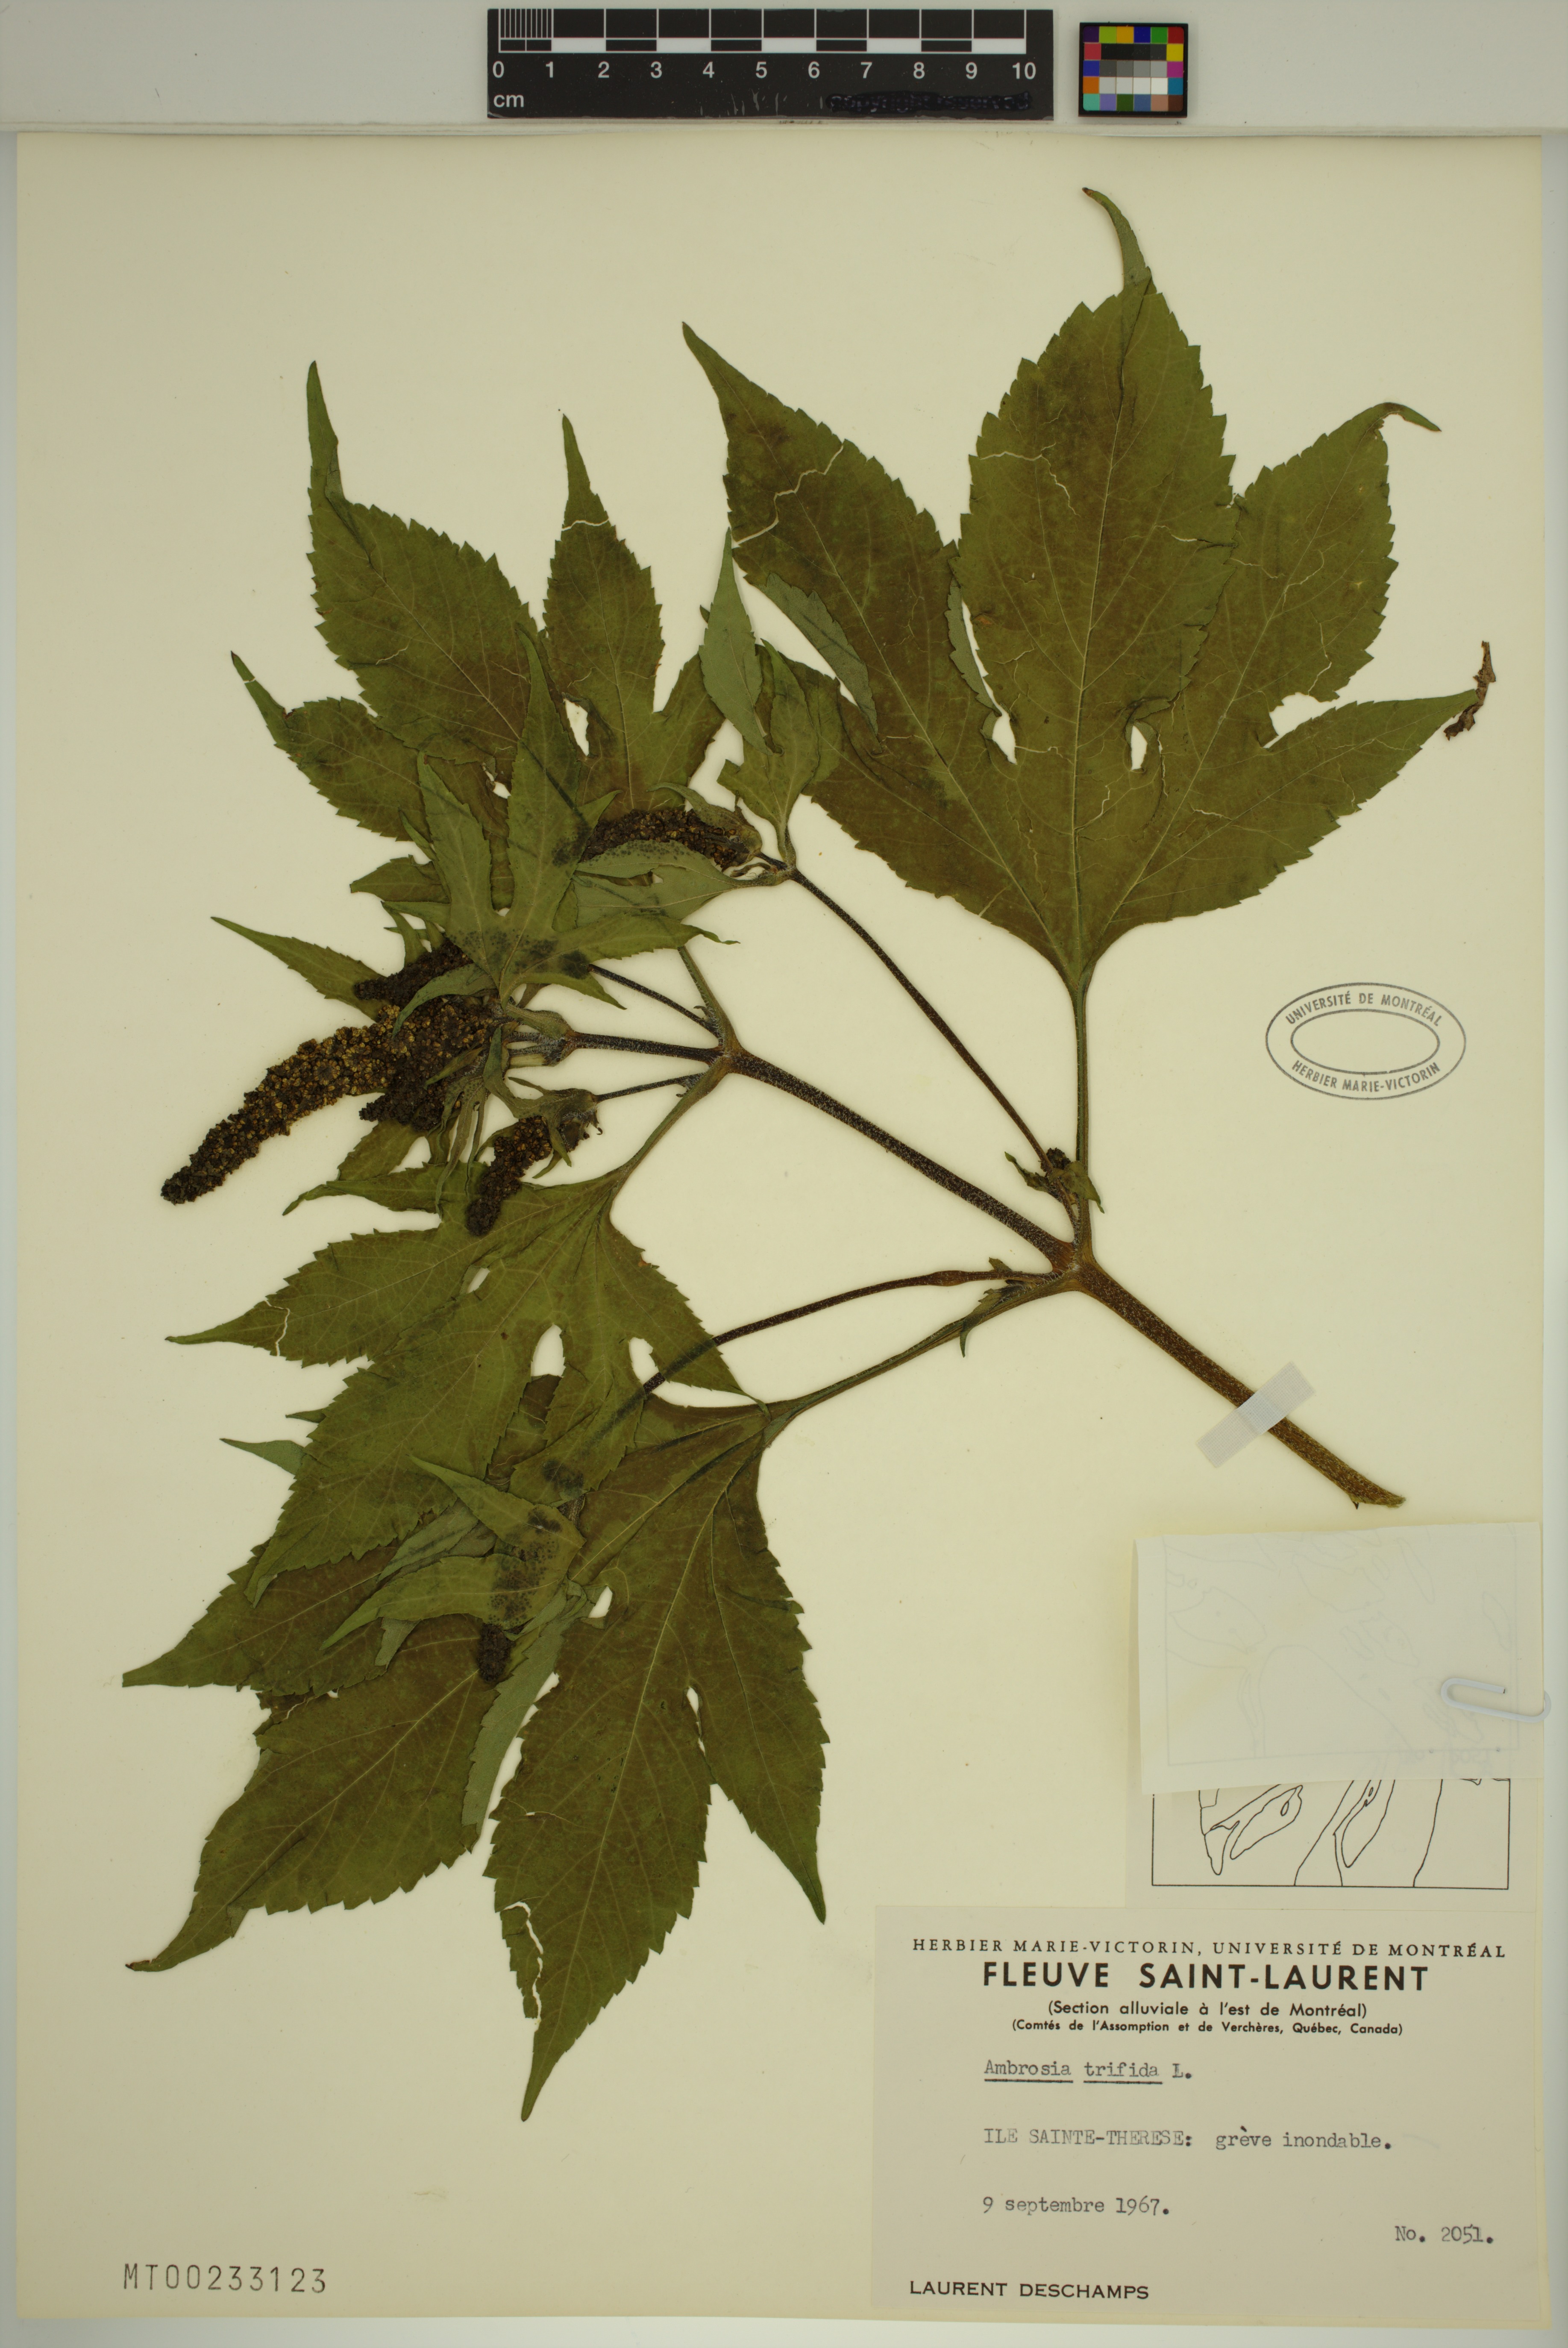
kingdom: Plantae
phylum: Tracheophyta
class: Magnoliopsida
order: Asterales
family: Asteraceae
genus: Ambrosia
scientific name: Ambrosia trifida
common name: Giant ragweed
